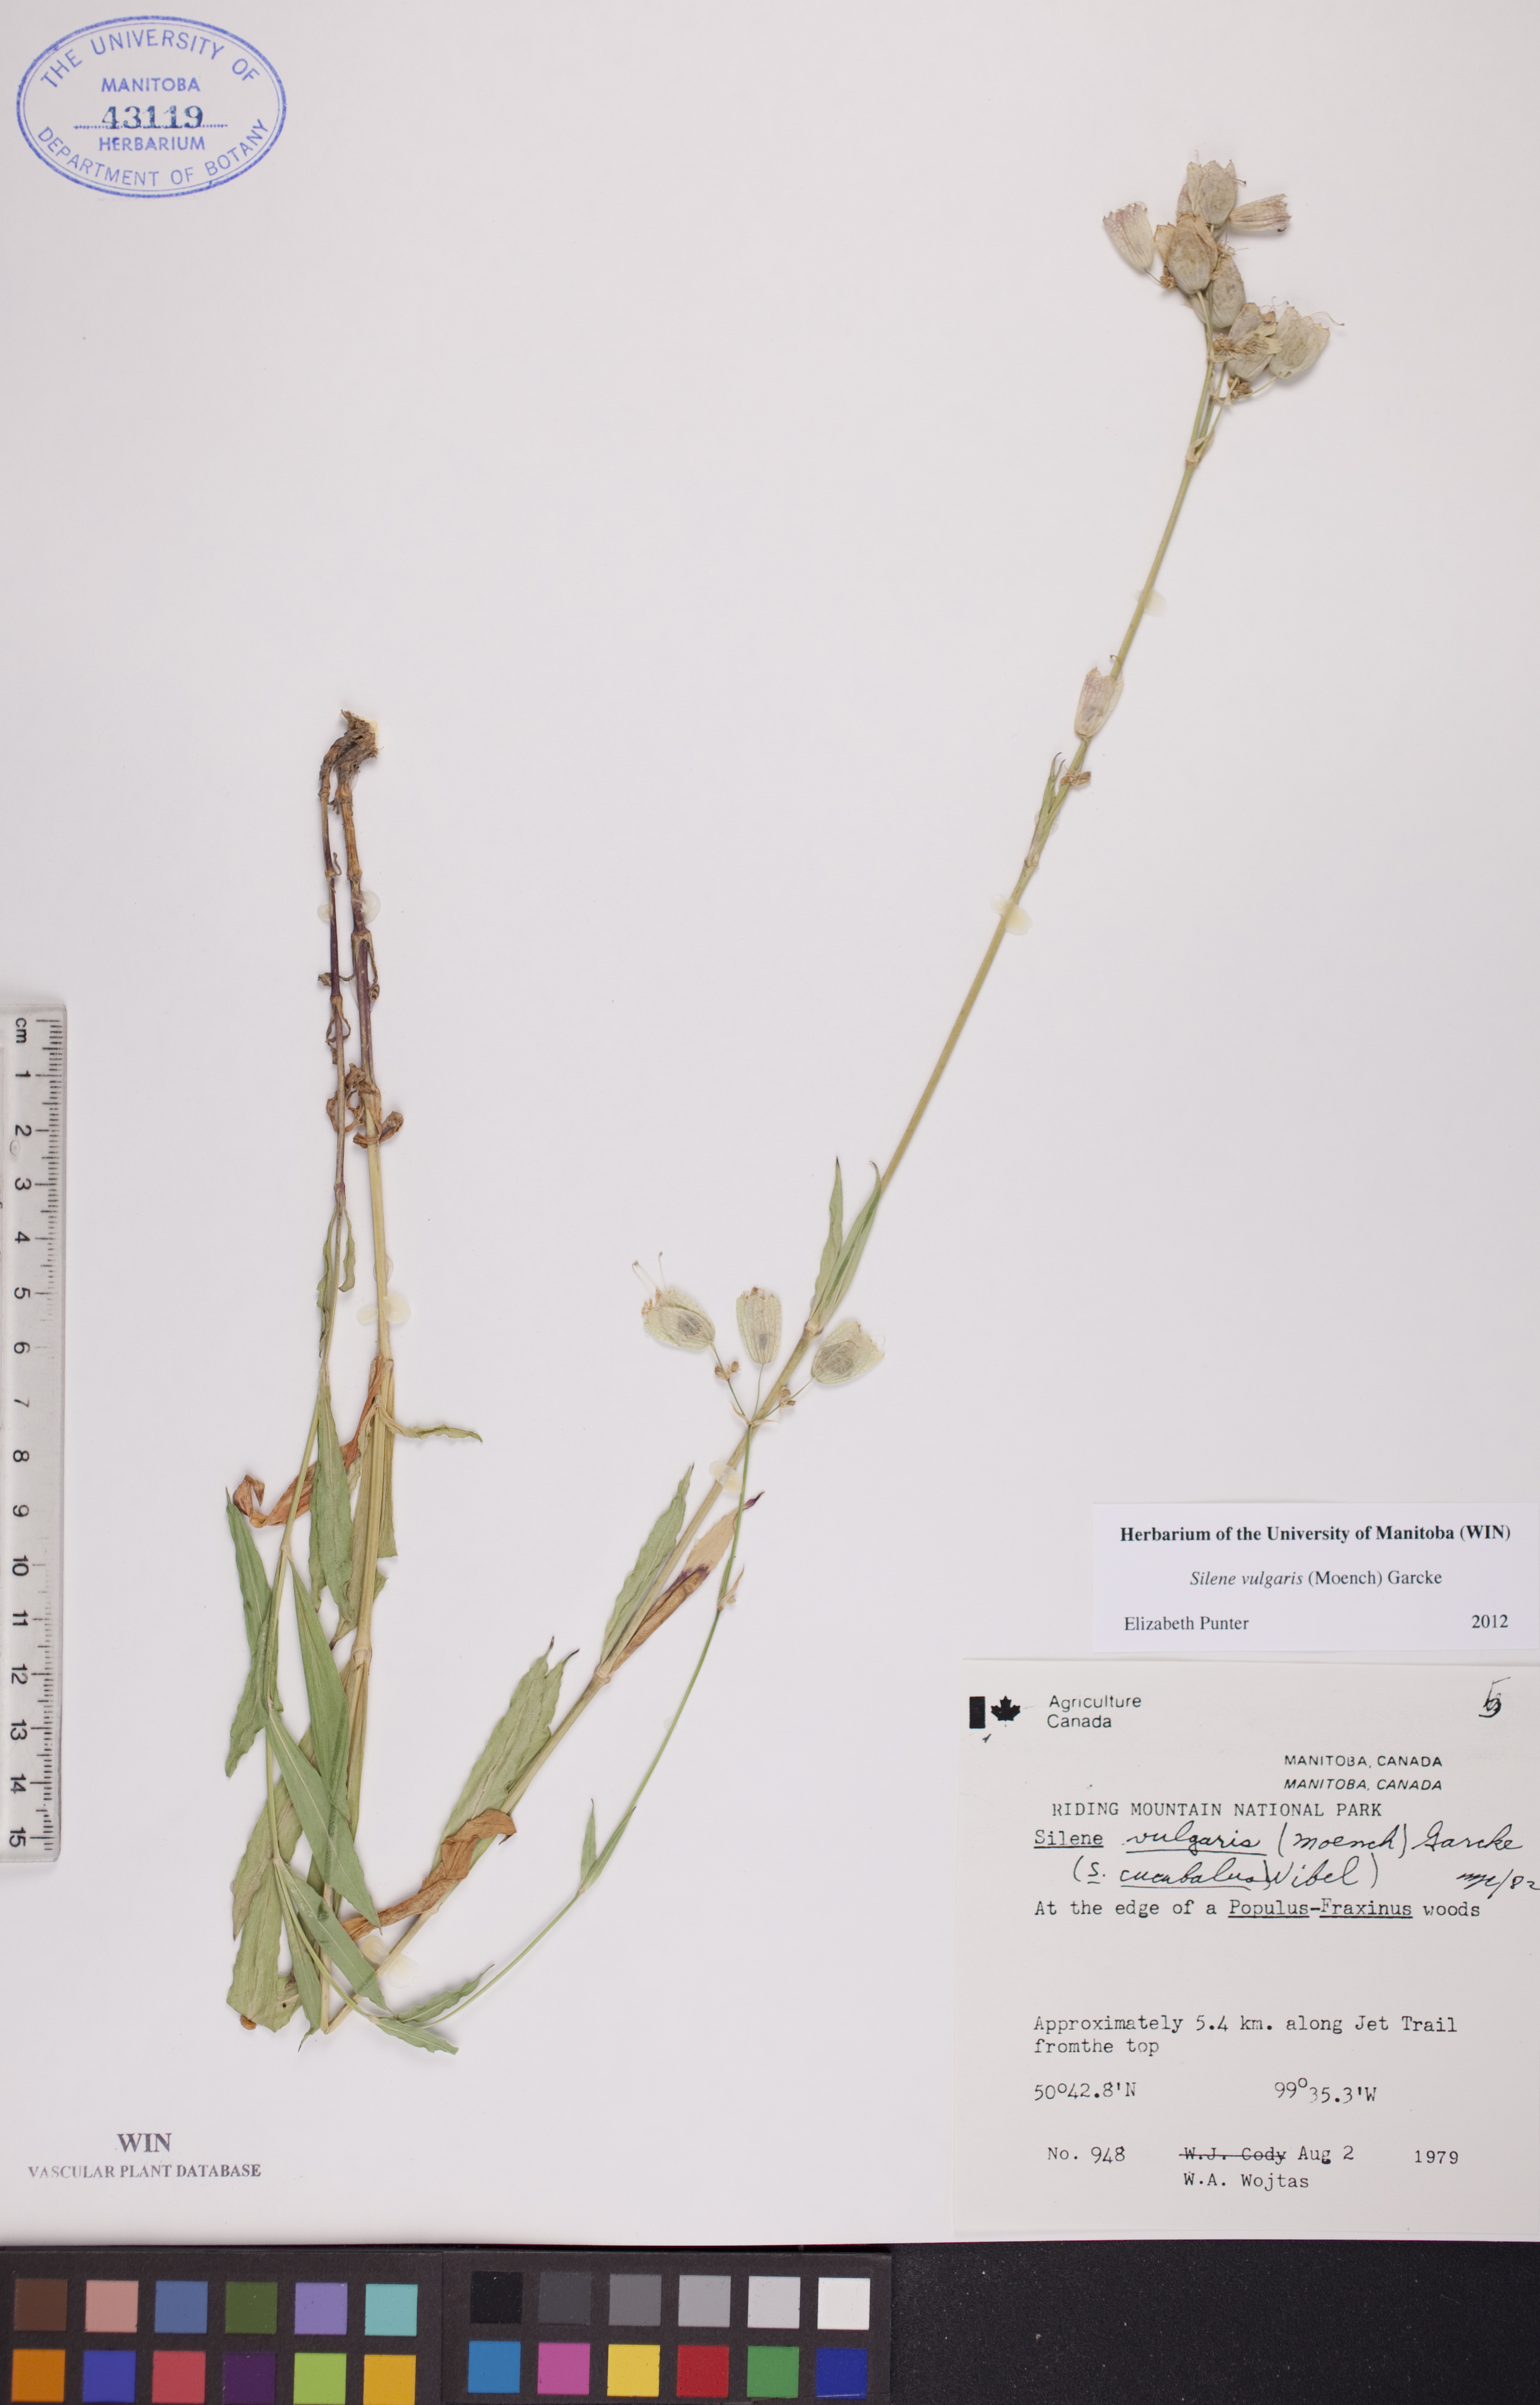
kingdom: Plantae
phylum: Tracheophyta
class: Magnoliopsida
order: Caryophyllales
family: Caryophyllaceae
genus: Silene
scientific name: Silene vulgaris
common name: Bladder campion
